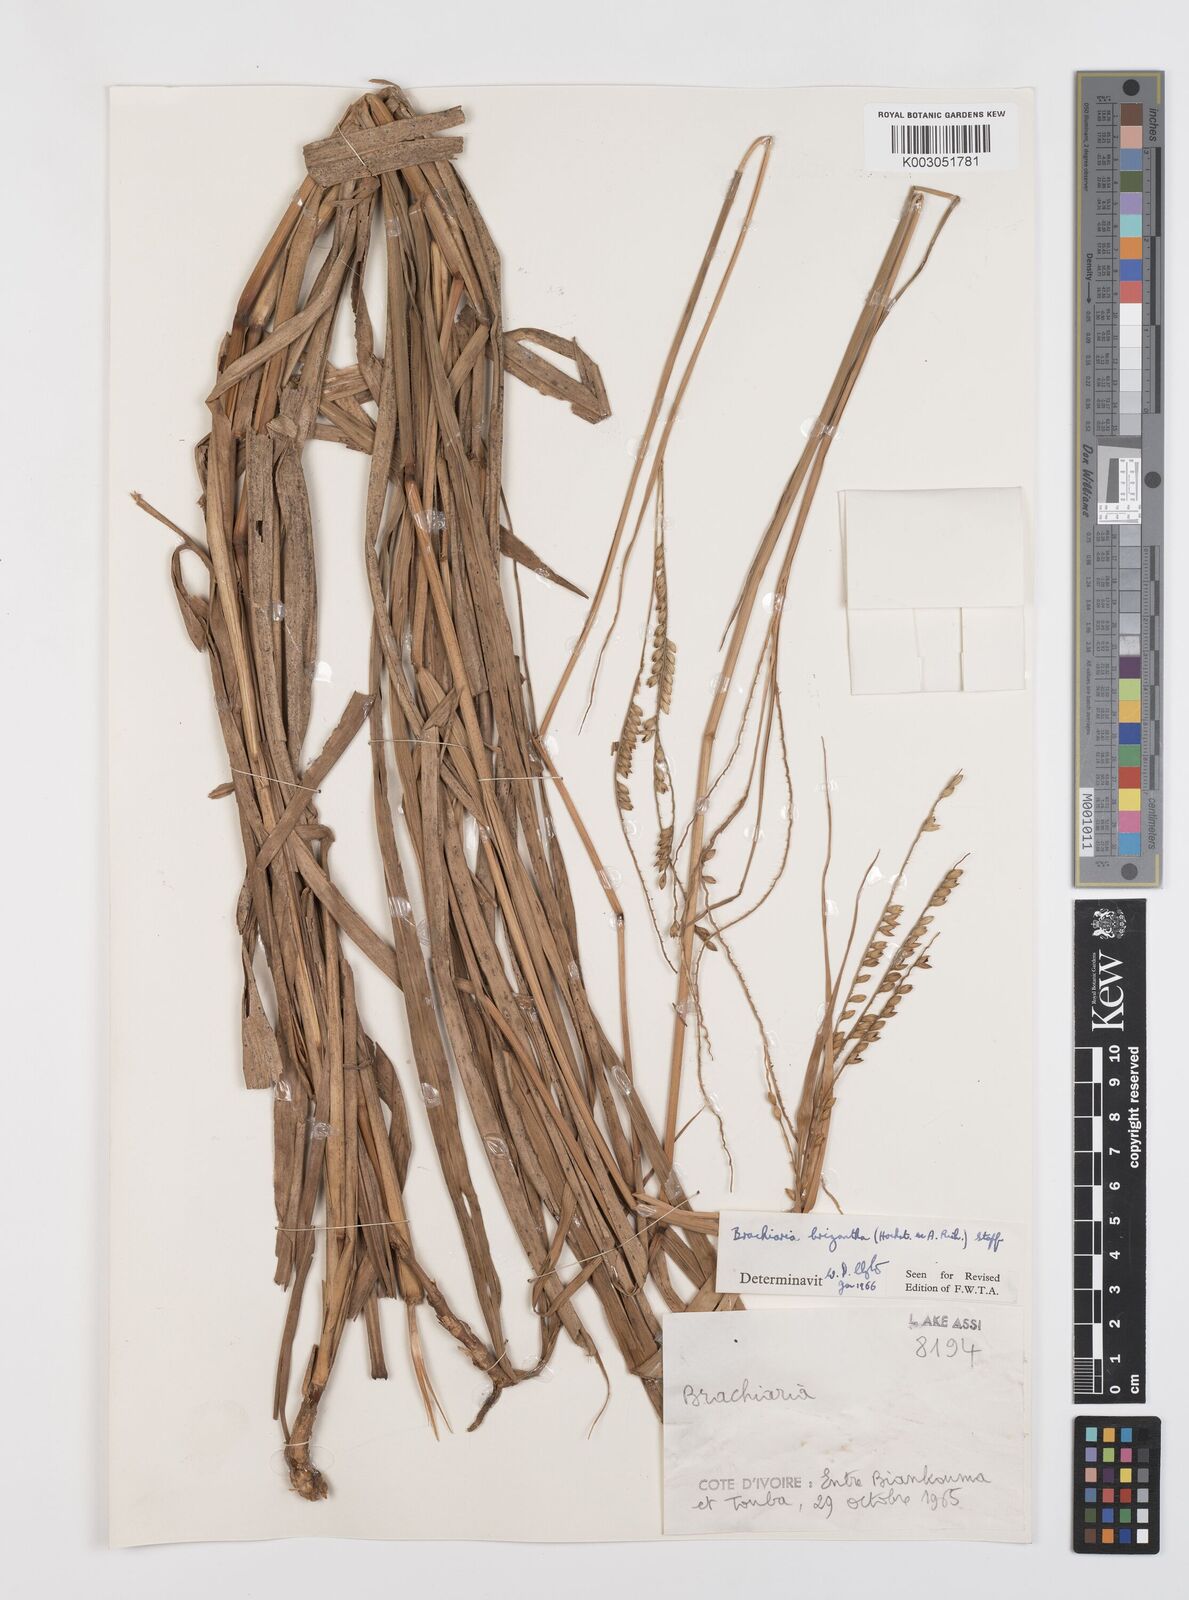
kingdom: Plantae
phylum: Tracheophyta
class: Liliopsida
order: Poales
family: Poaceae
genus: Urochloa
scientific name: Urochloa brizantha
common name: Palisade signalgrass
